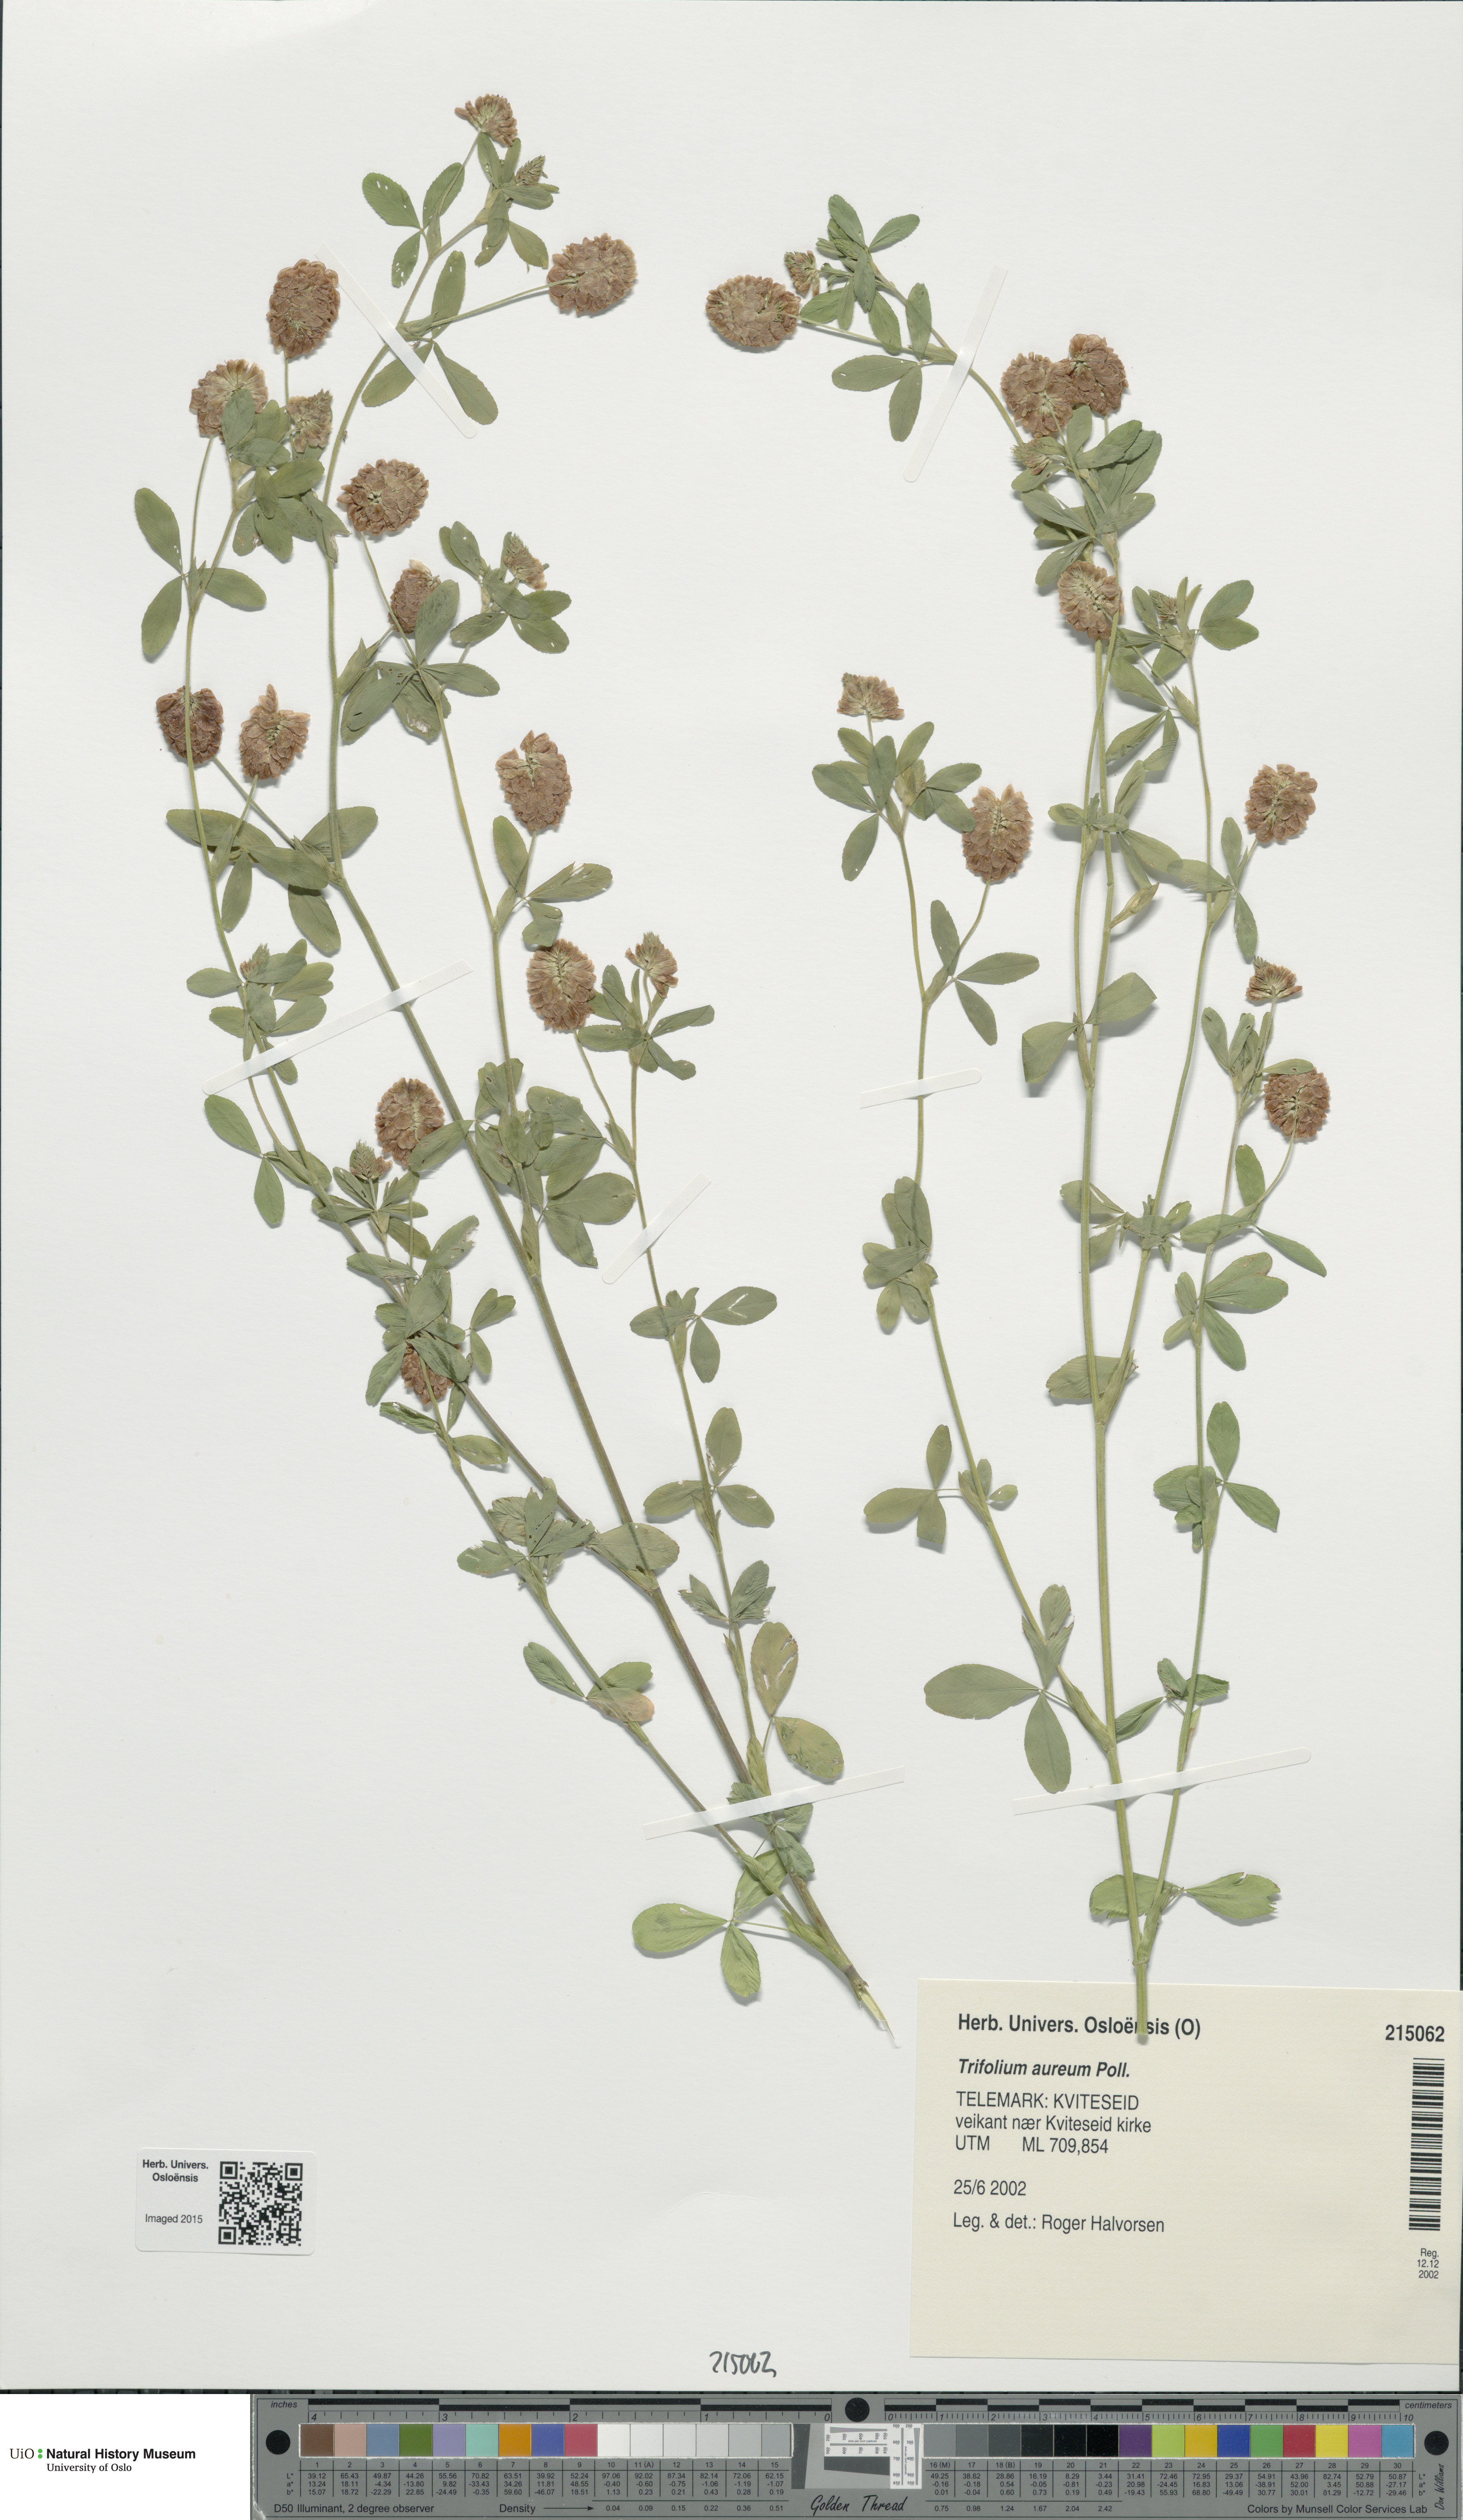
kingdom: Plantae
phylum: Tracheophyta
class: Magnoliopsida
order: Fabales
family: Fabaceae
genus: Trifolium
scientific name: Trifolium aureum
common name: Golden clover
